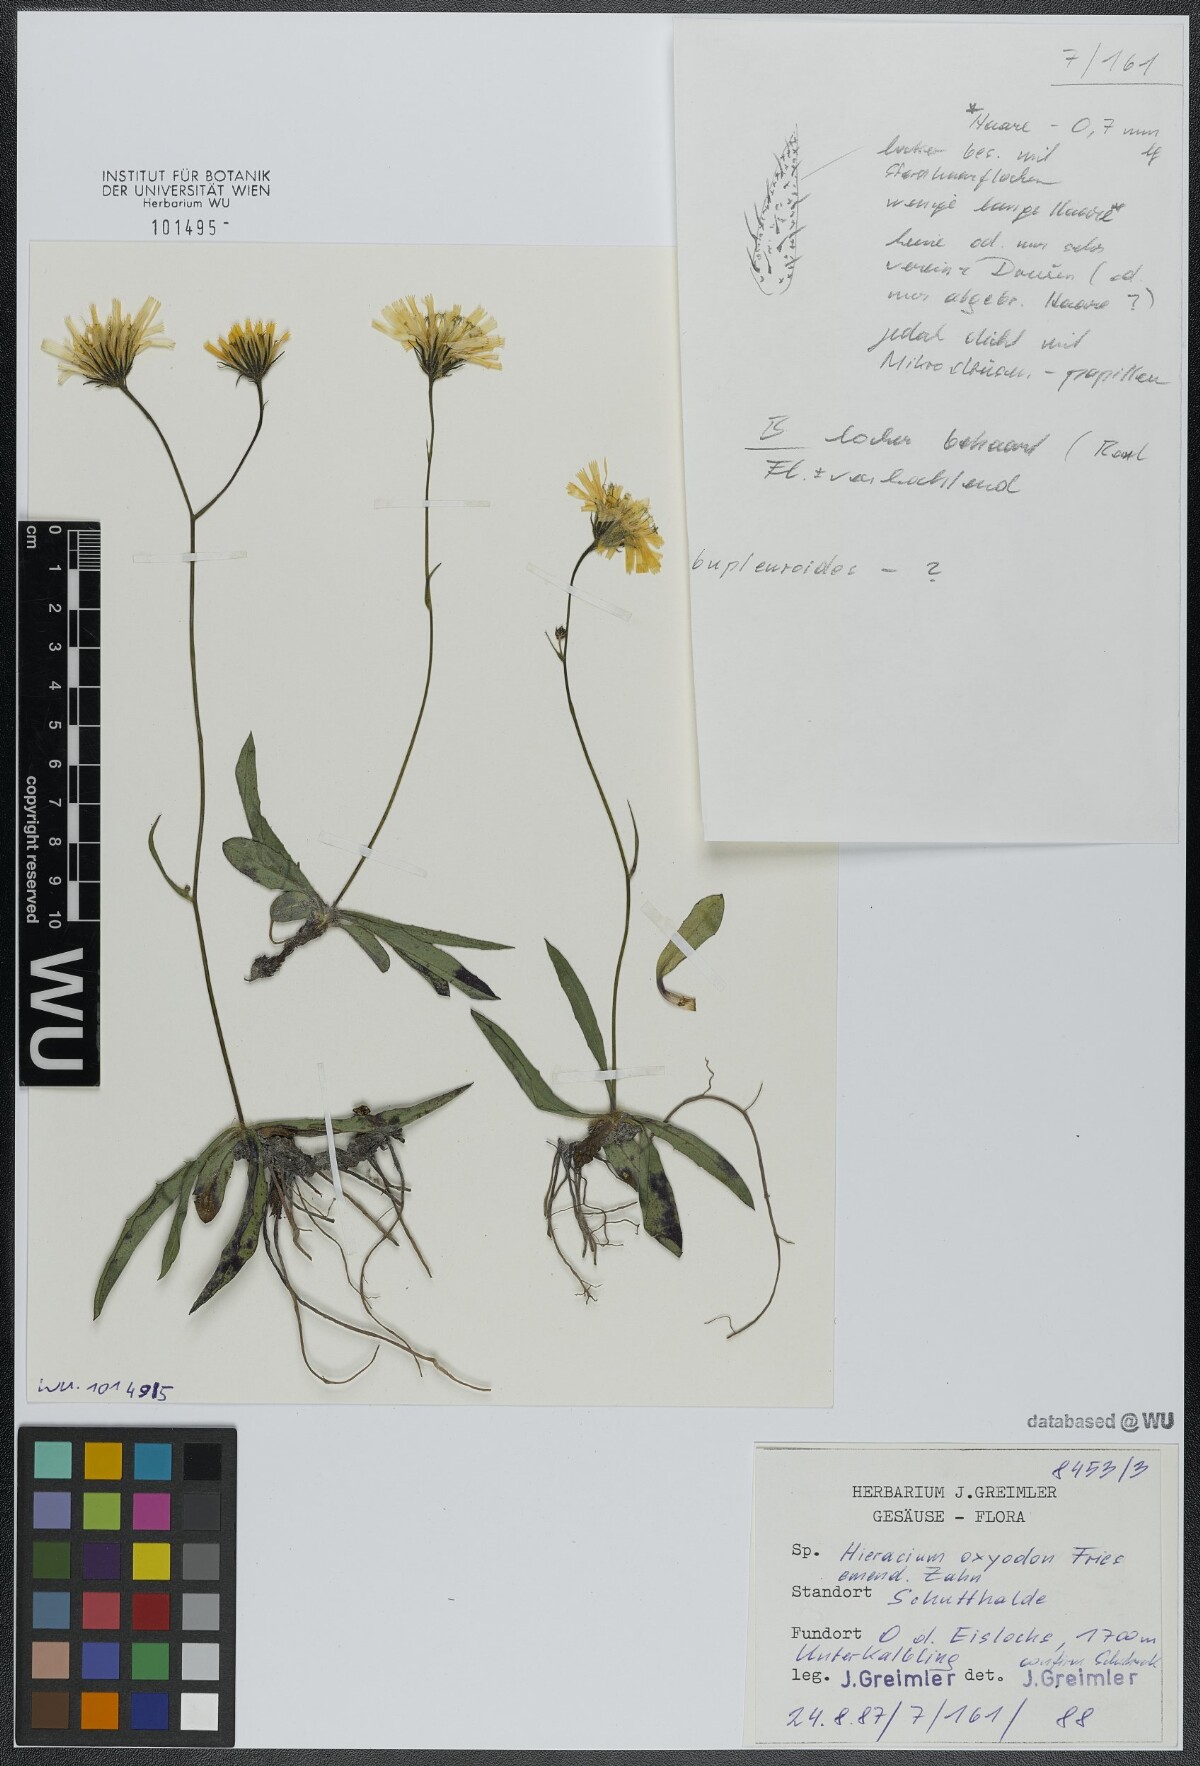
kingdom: Plantae
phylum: Tracheophyta
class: Magnoliopsida
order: Asterales
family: Asteraceae
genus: Hieracium
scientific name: Hieracium oxyodon
